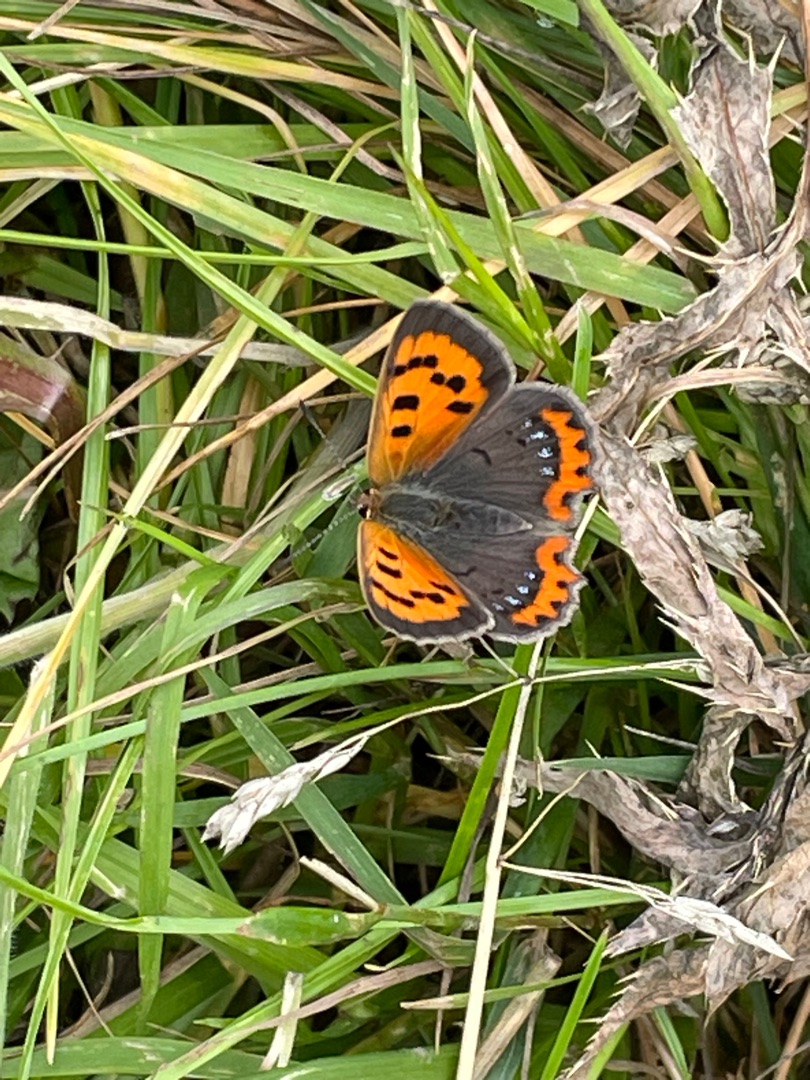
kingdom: Animalia
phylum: Arthropoda
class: Insecta
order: Lepidoptera
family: Lycaenidae
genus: Lycaena
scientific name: Lycaena phlaeas
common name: Lille ildfugl
